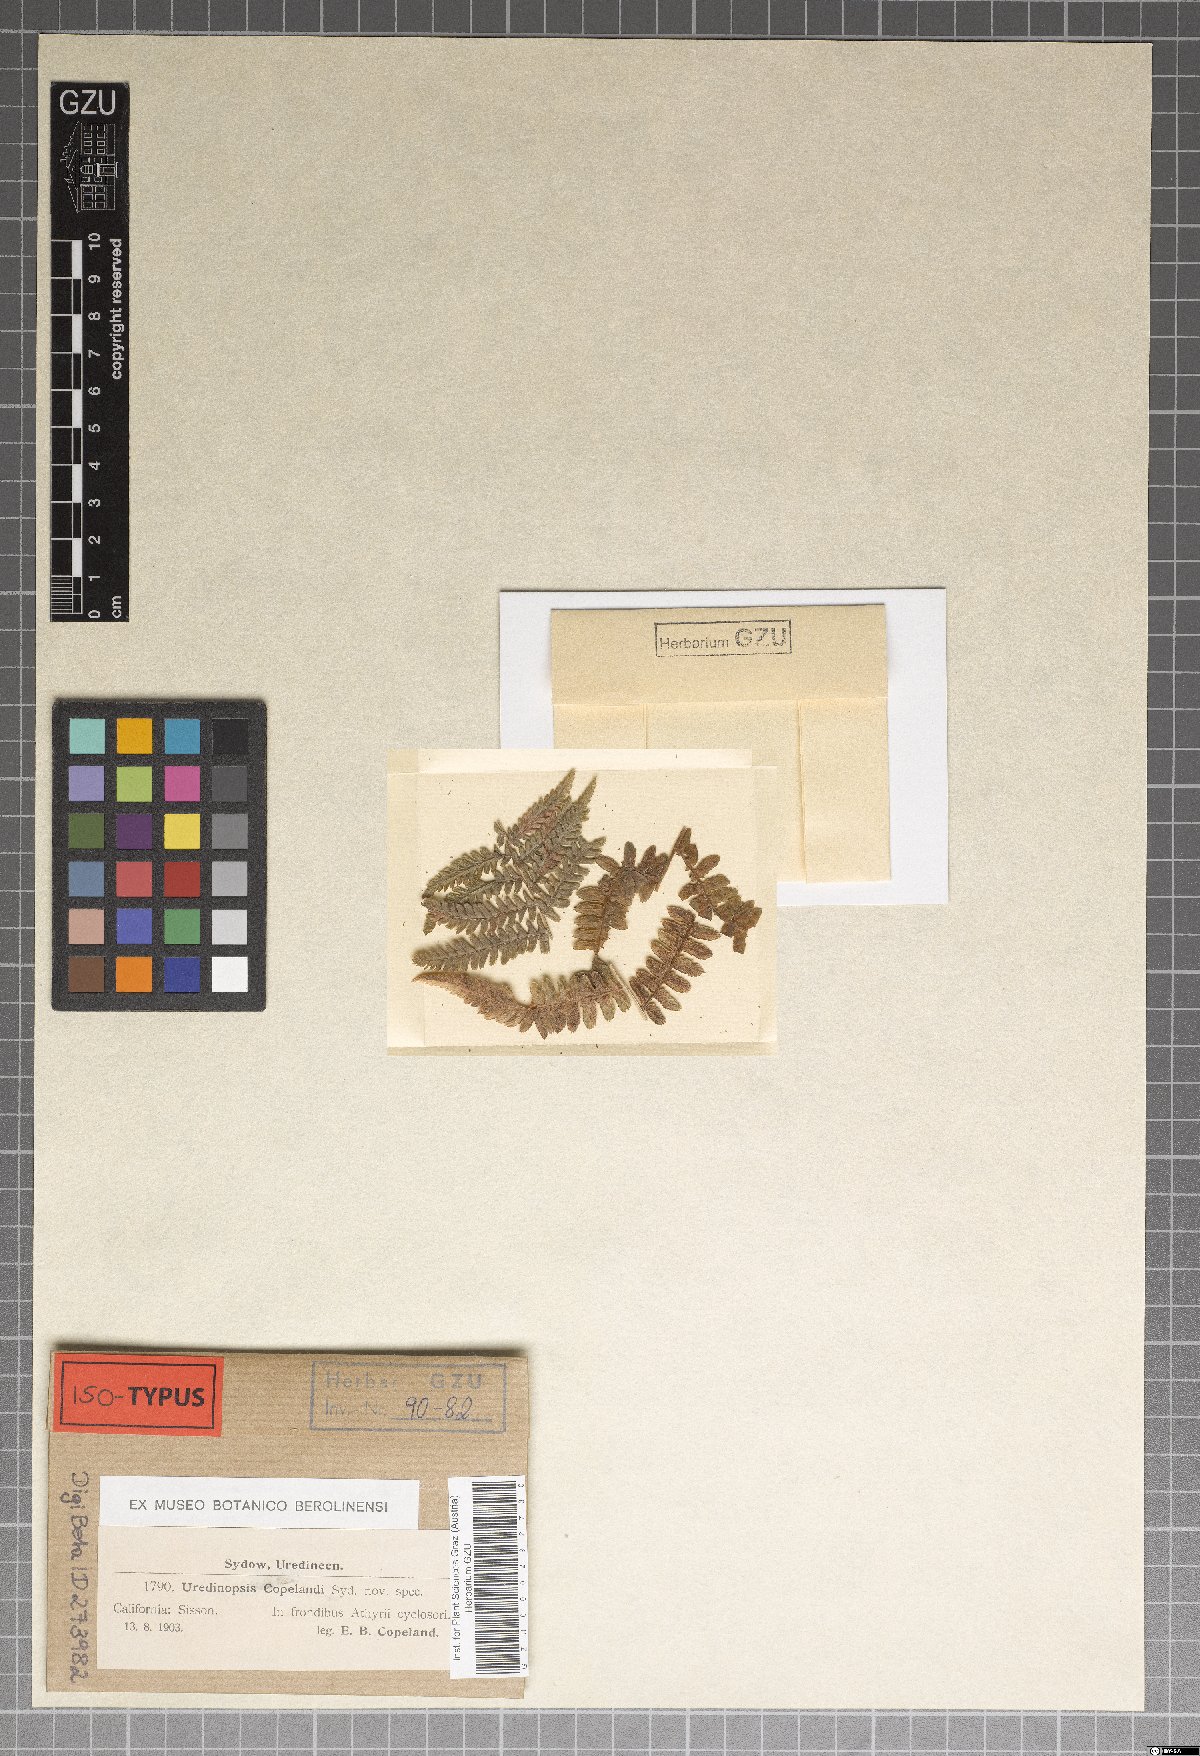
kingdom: Fungi
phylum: Basidiomycota
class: Pucciniomycetes
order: Pucciniales
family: Pucciniastraceae
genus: Uredinopsis
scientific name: Uredinopsis copelandii
